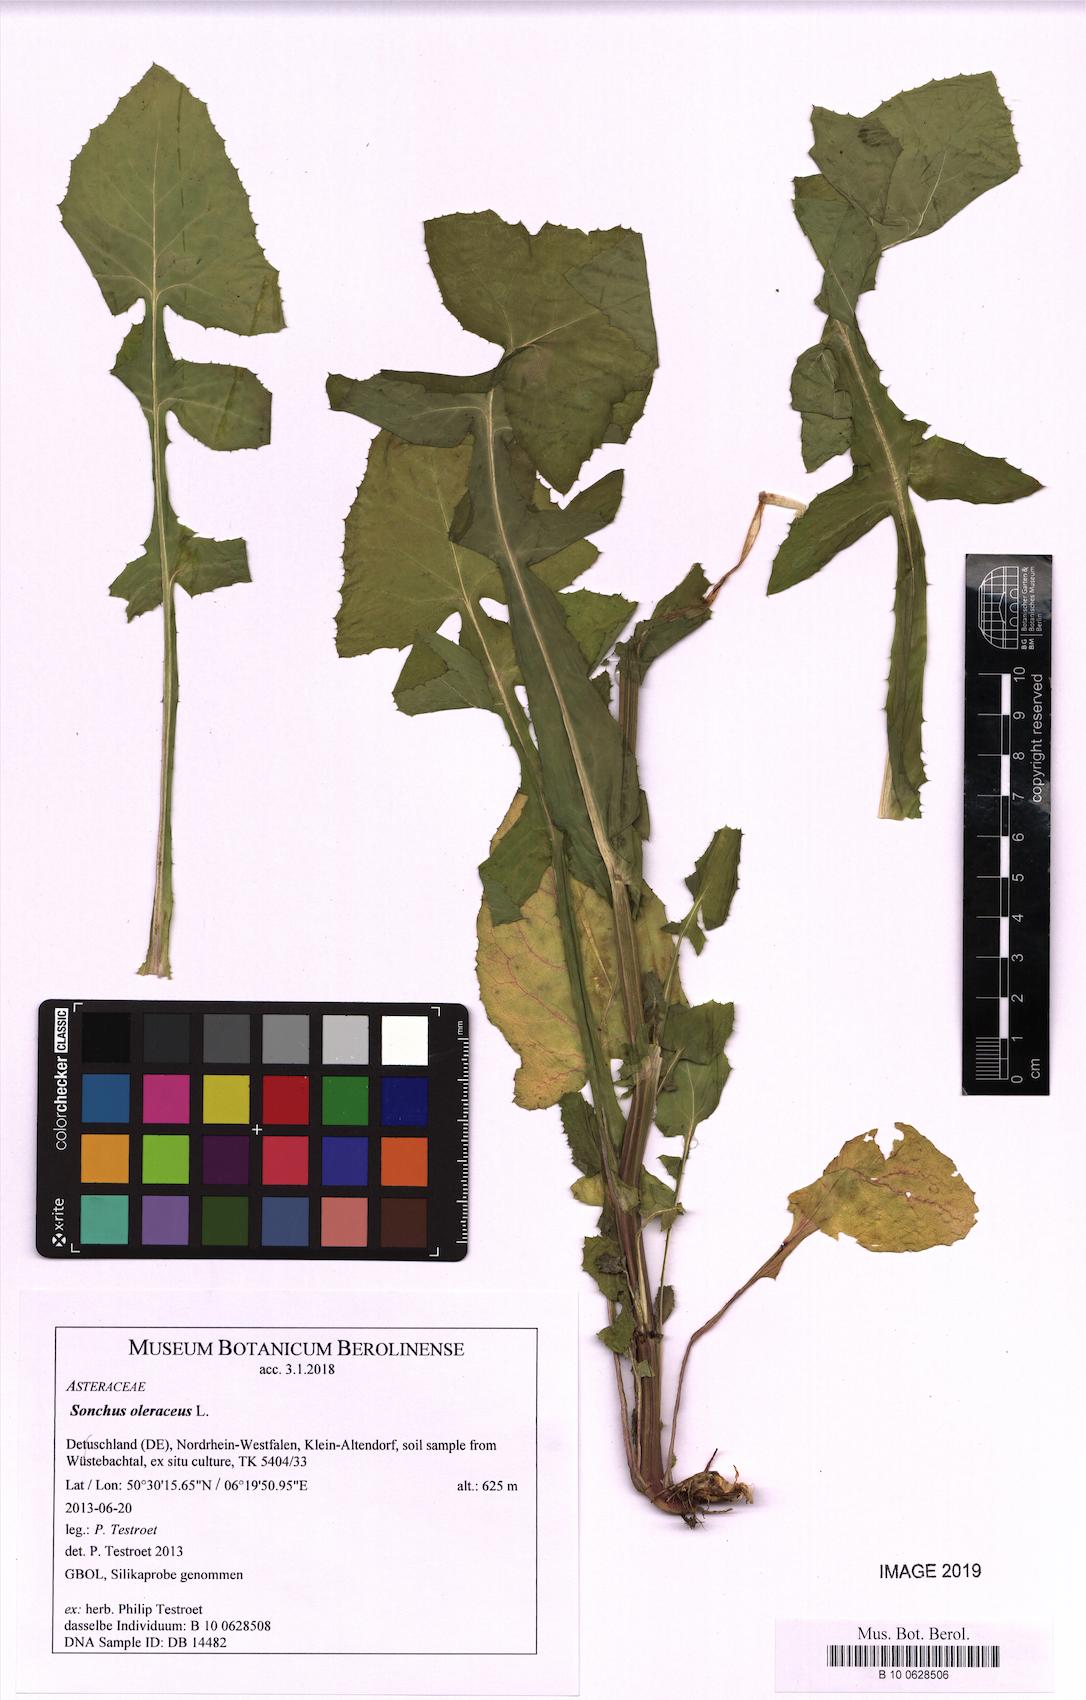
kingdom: Plantae
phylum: Tracheophyta
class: Magnoliopsida
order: Asterales
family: Asteraceae
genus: Sonchus
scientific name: Sonchus oleraceus
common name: Common sowthistle
